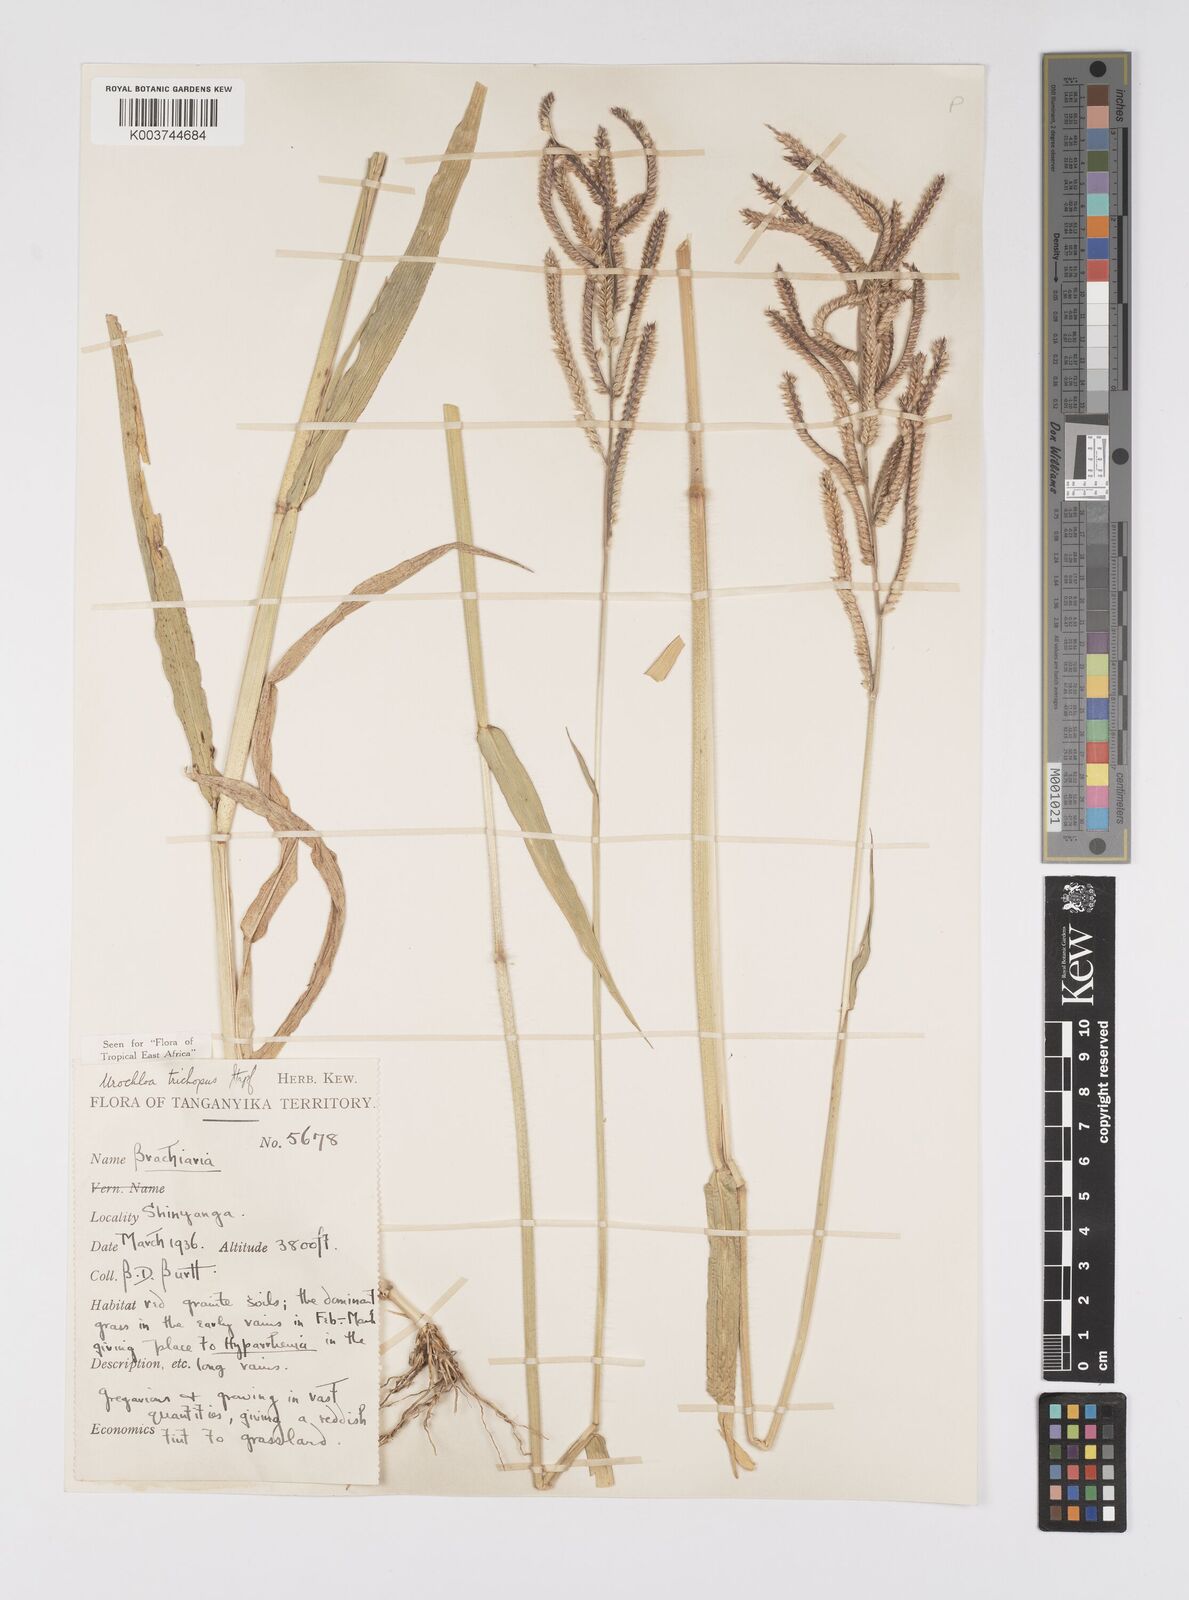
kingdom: Plantae
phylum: Tracheophyta
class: Liliopsida
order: Poales
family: Poaceae
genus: Urochloa
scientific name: Urochloa trichopus
